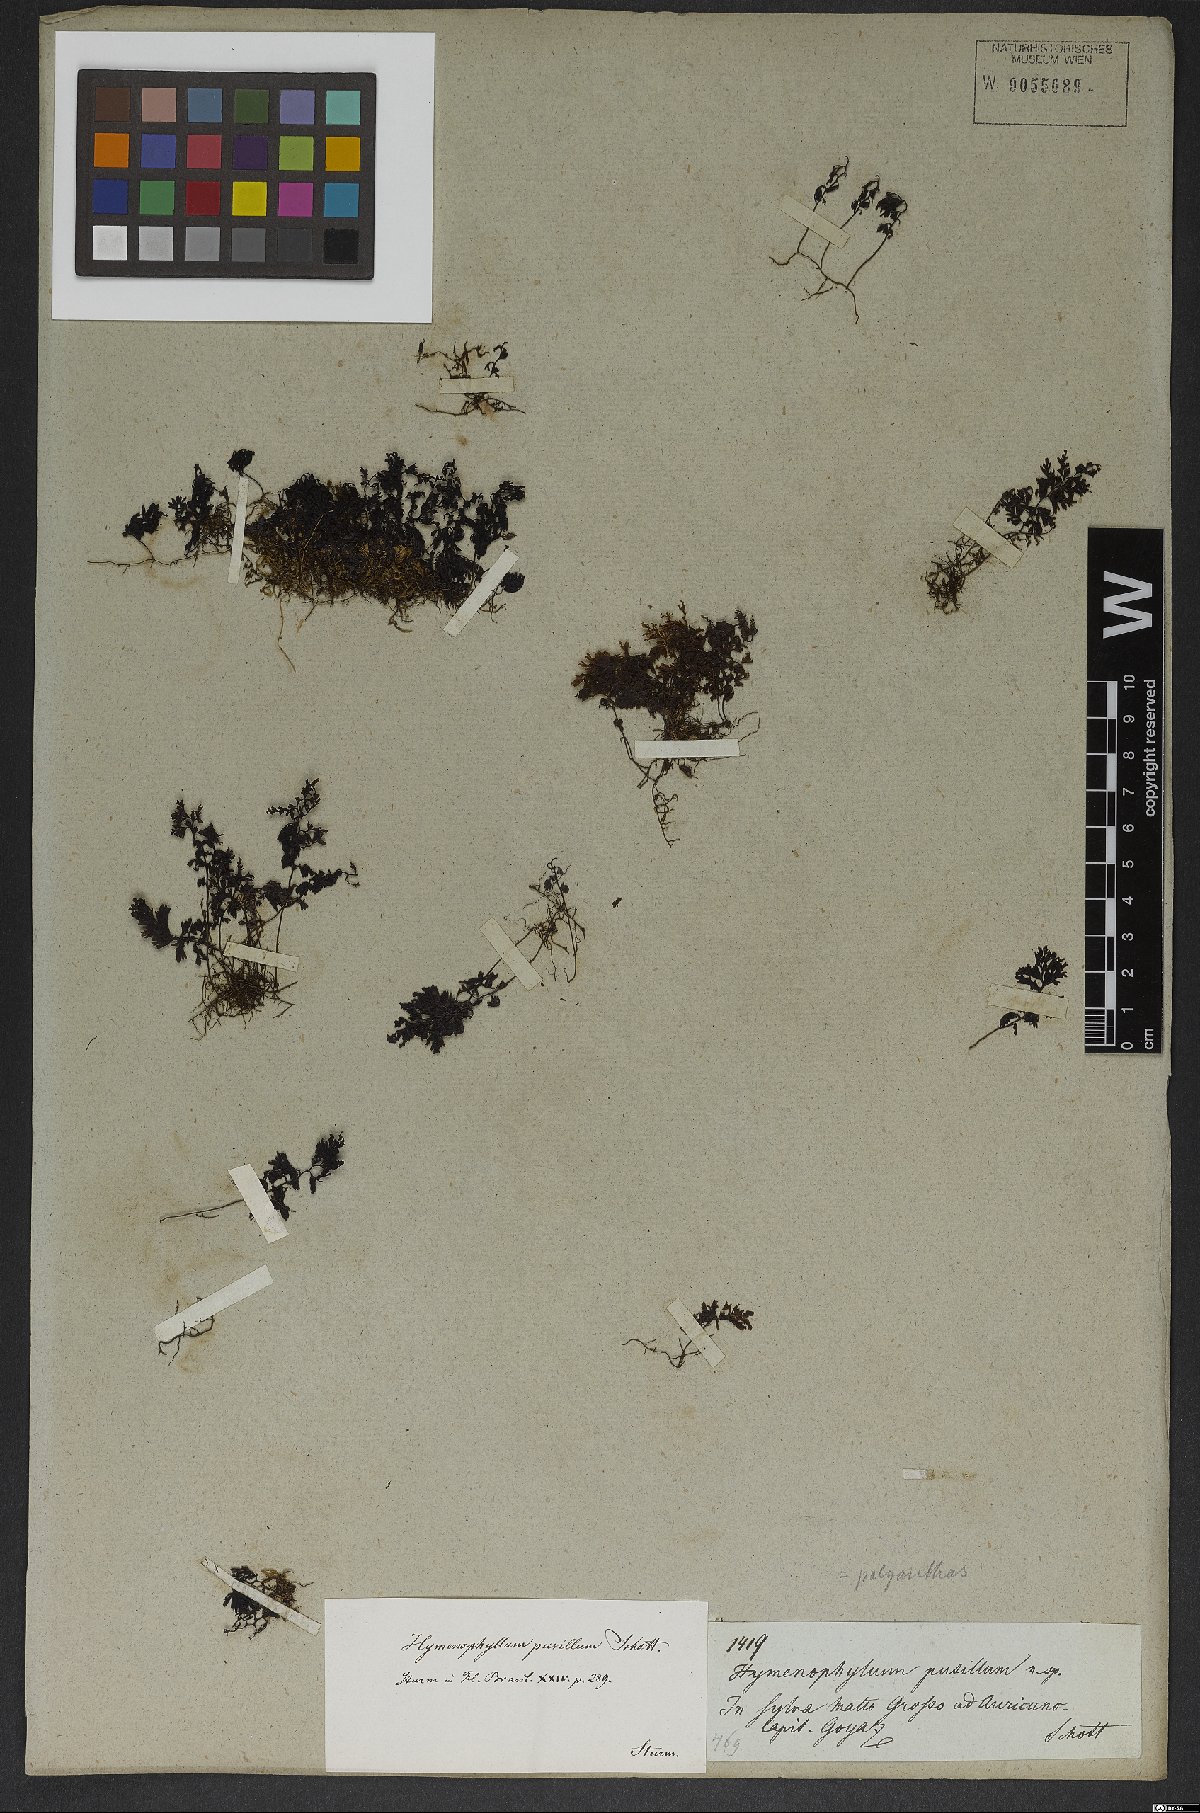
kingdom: Plantae
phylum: Tracheophyta
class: Polypodiopsida
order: Hymenophyllales
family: Hymenophyllaceae
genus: Hymenophyllum
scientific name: Hymenophyllum asplenioides
